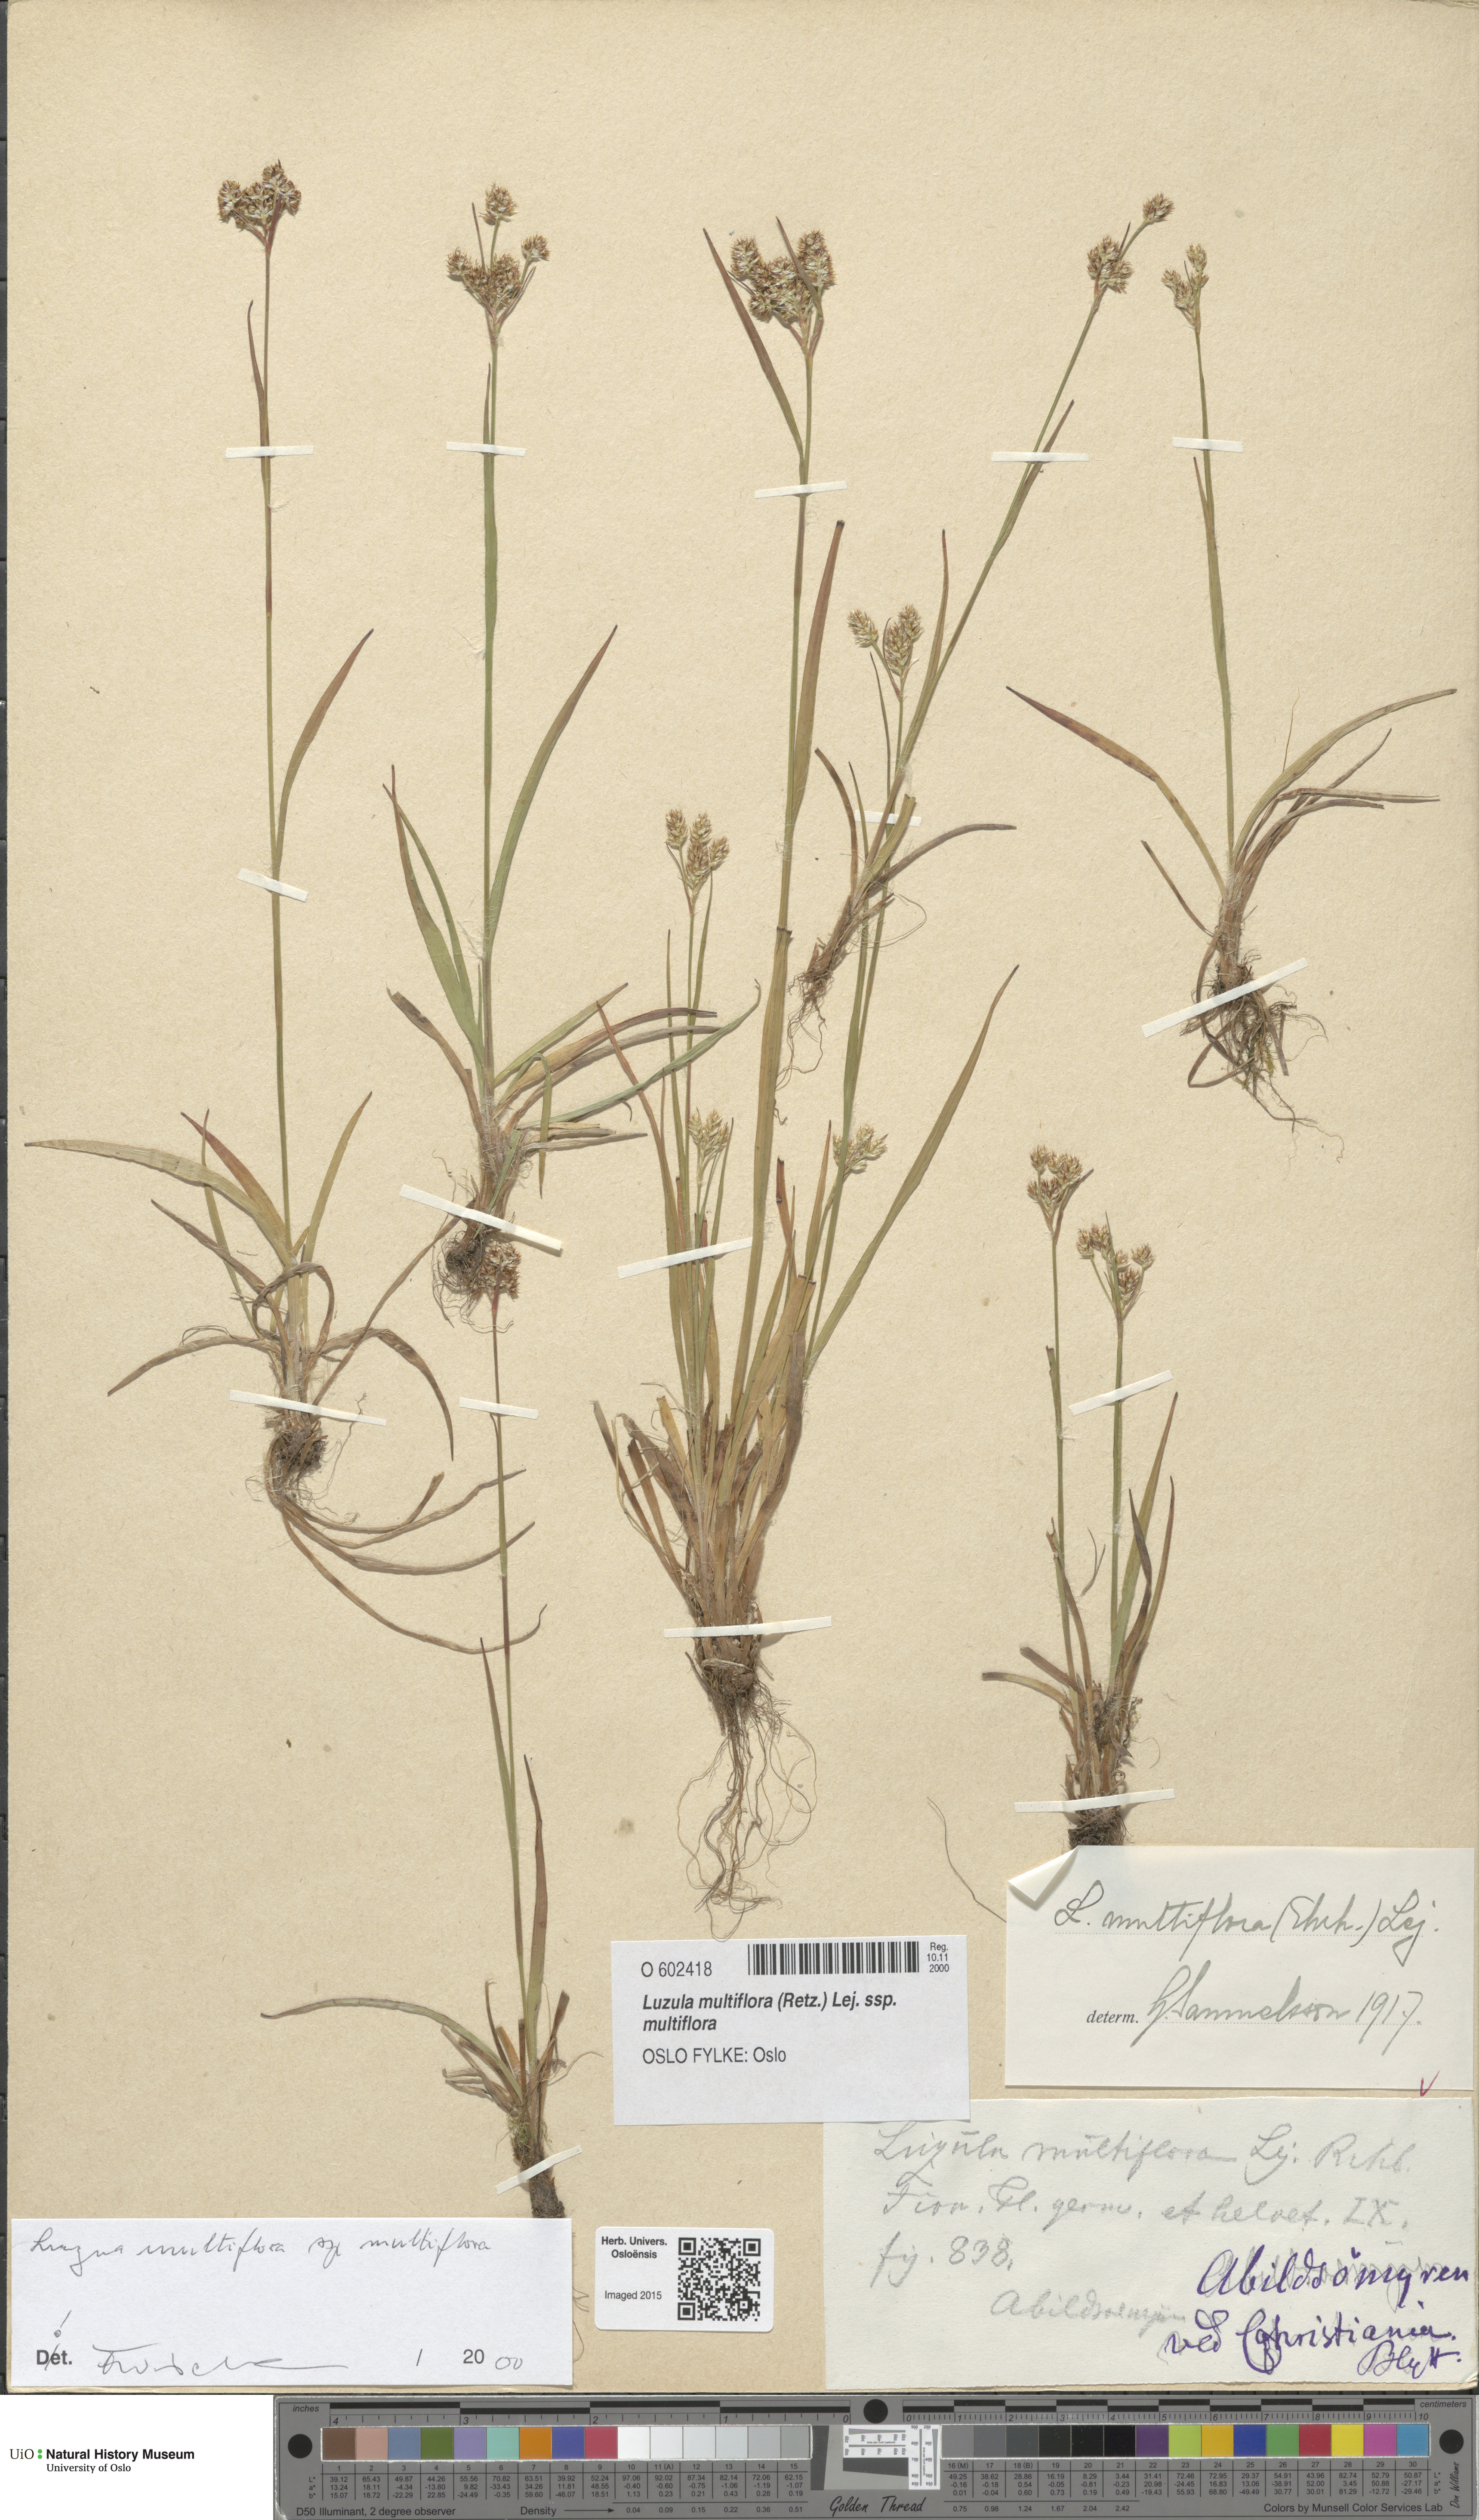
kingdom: Plantae
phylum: Tracheophyta
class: Liliopsida
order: Poales
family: Juncaceae
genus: Luzula
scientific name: Luzula multiflora
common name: Heath wood-rush
